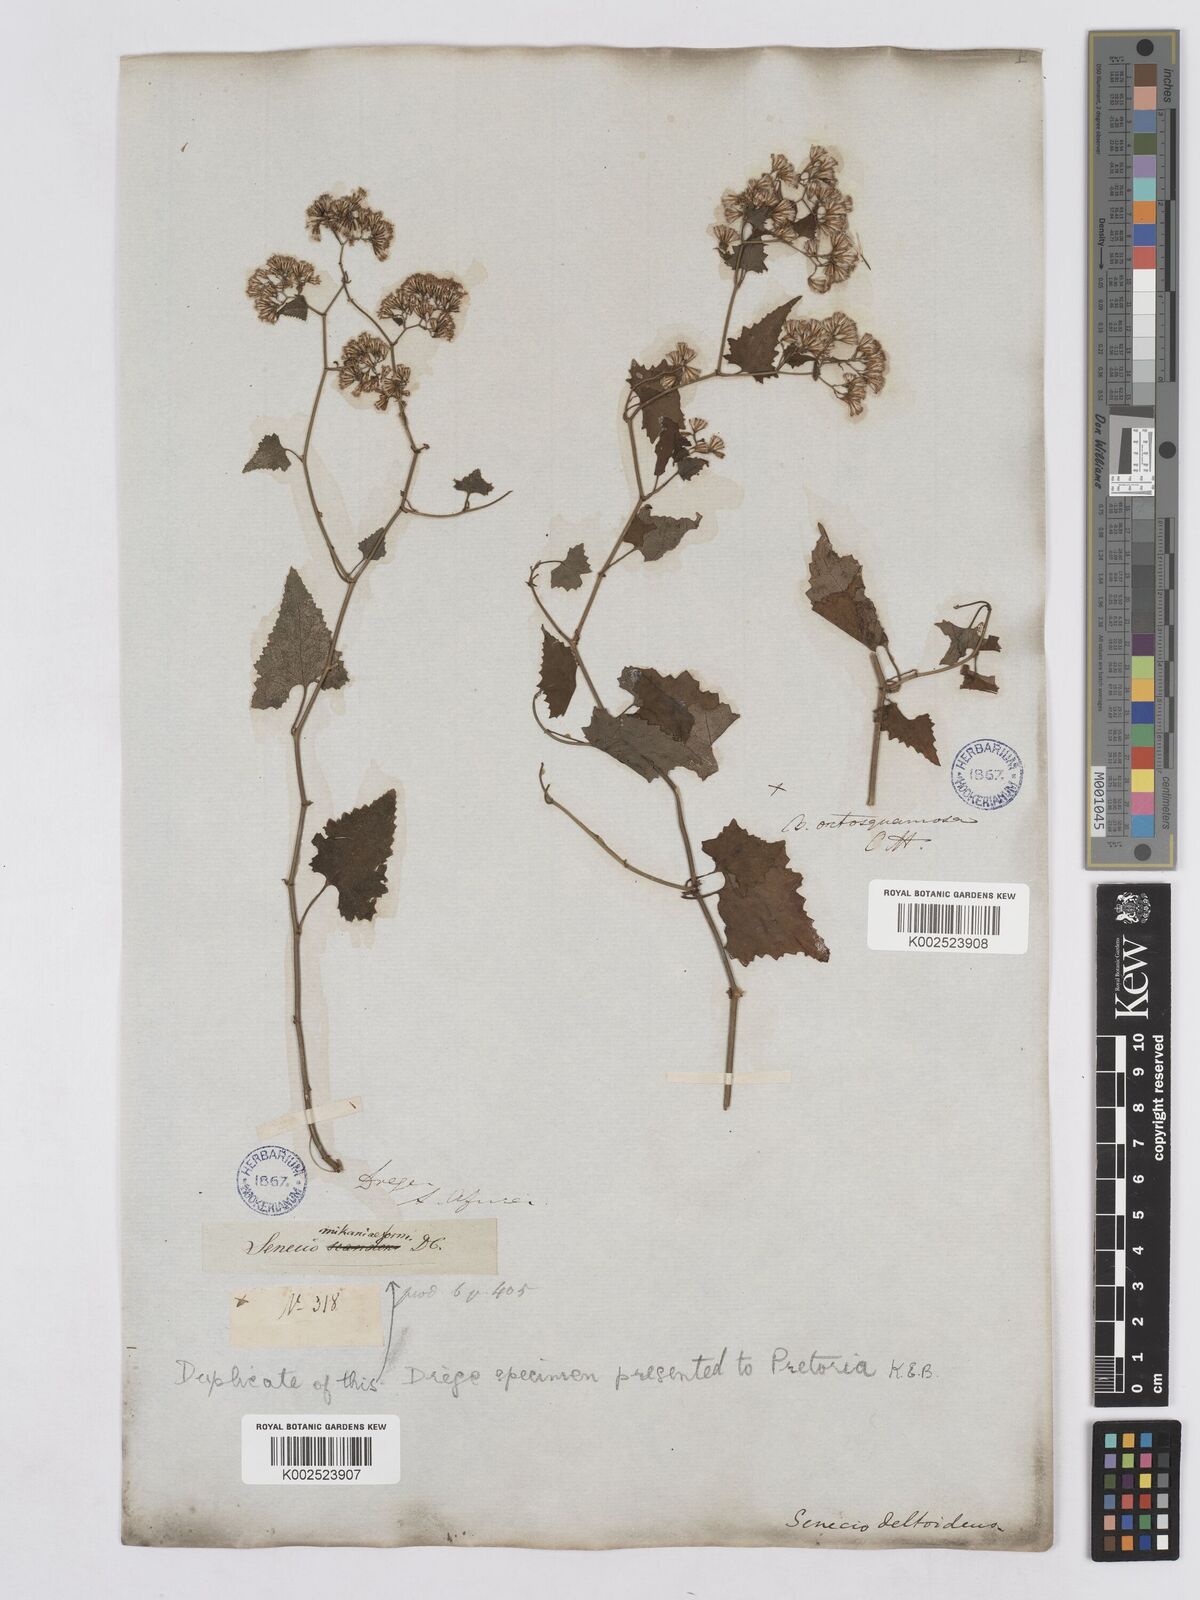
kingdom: Plantae
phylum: Tracheophyta
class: Magnoliopsida
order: Asterales
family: Asteraceae
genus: Senecio
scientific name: Senecio deltoideus
